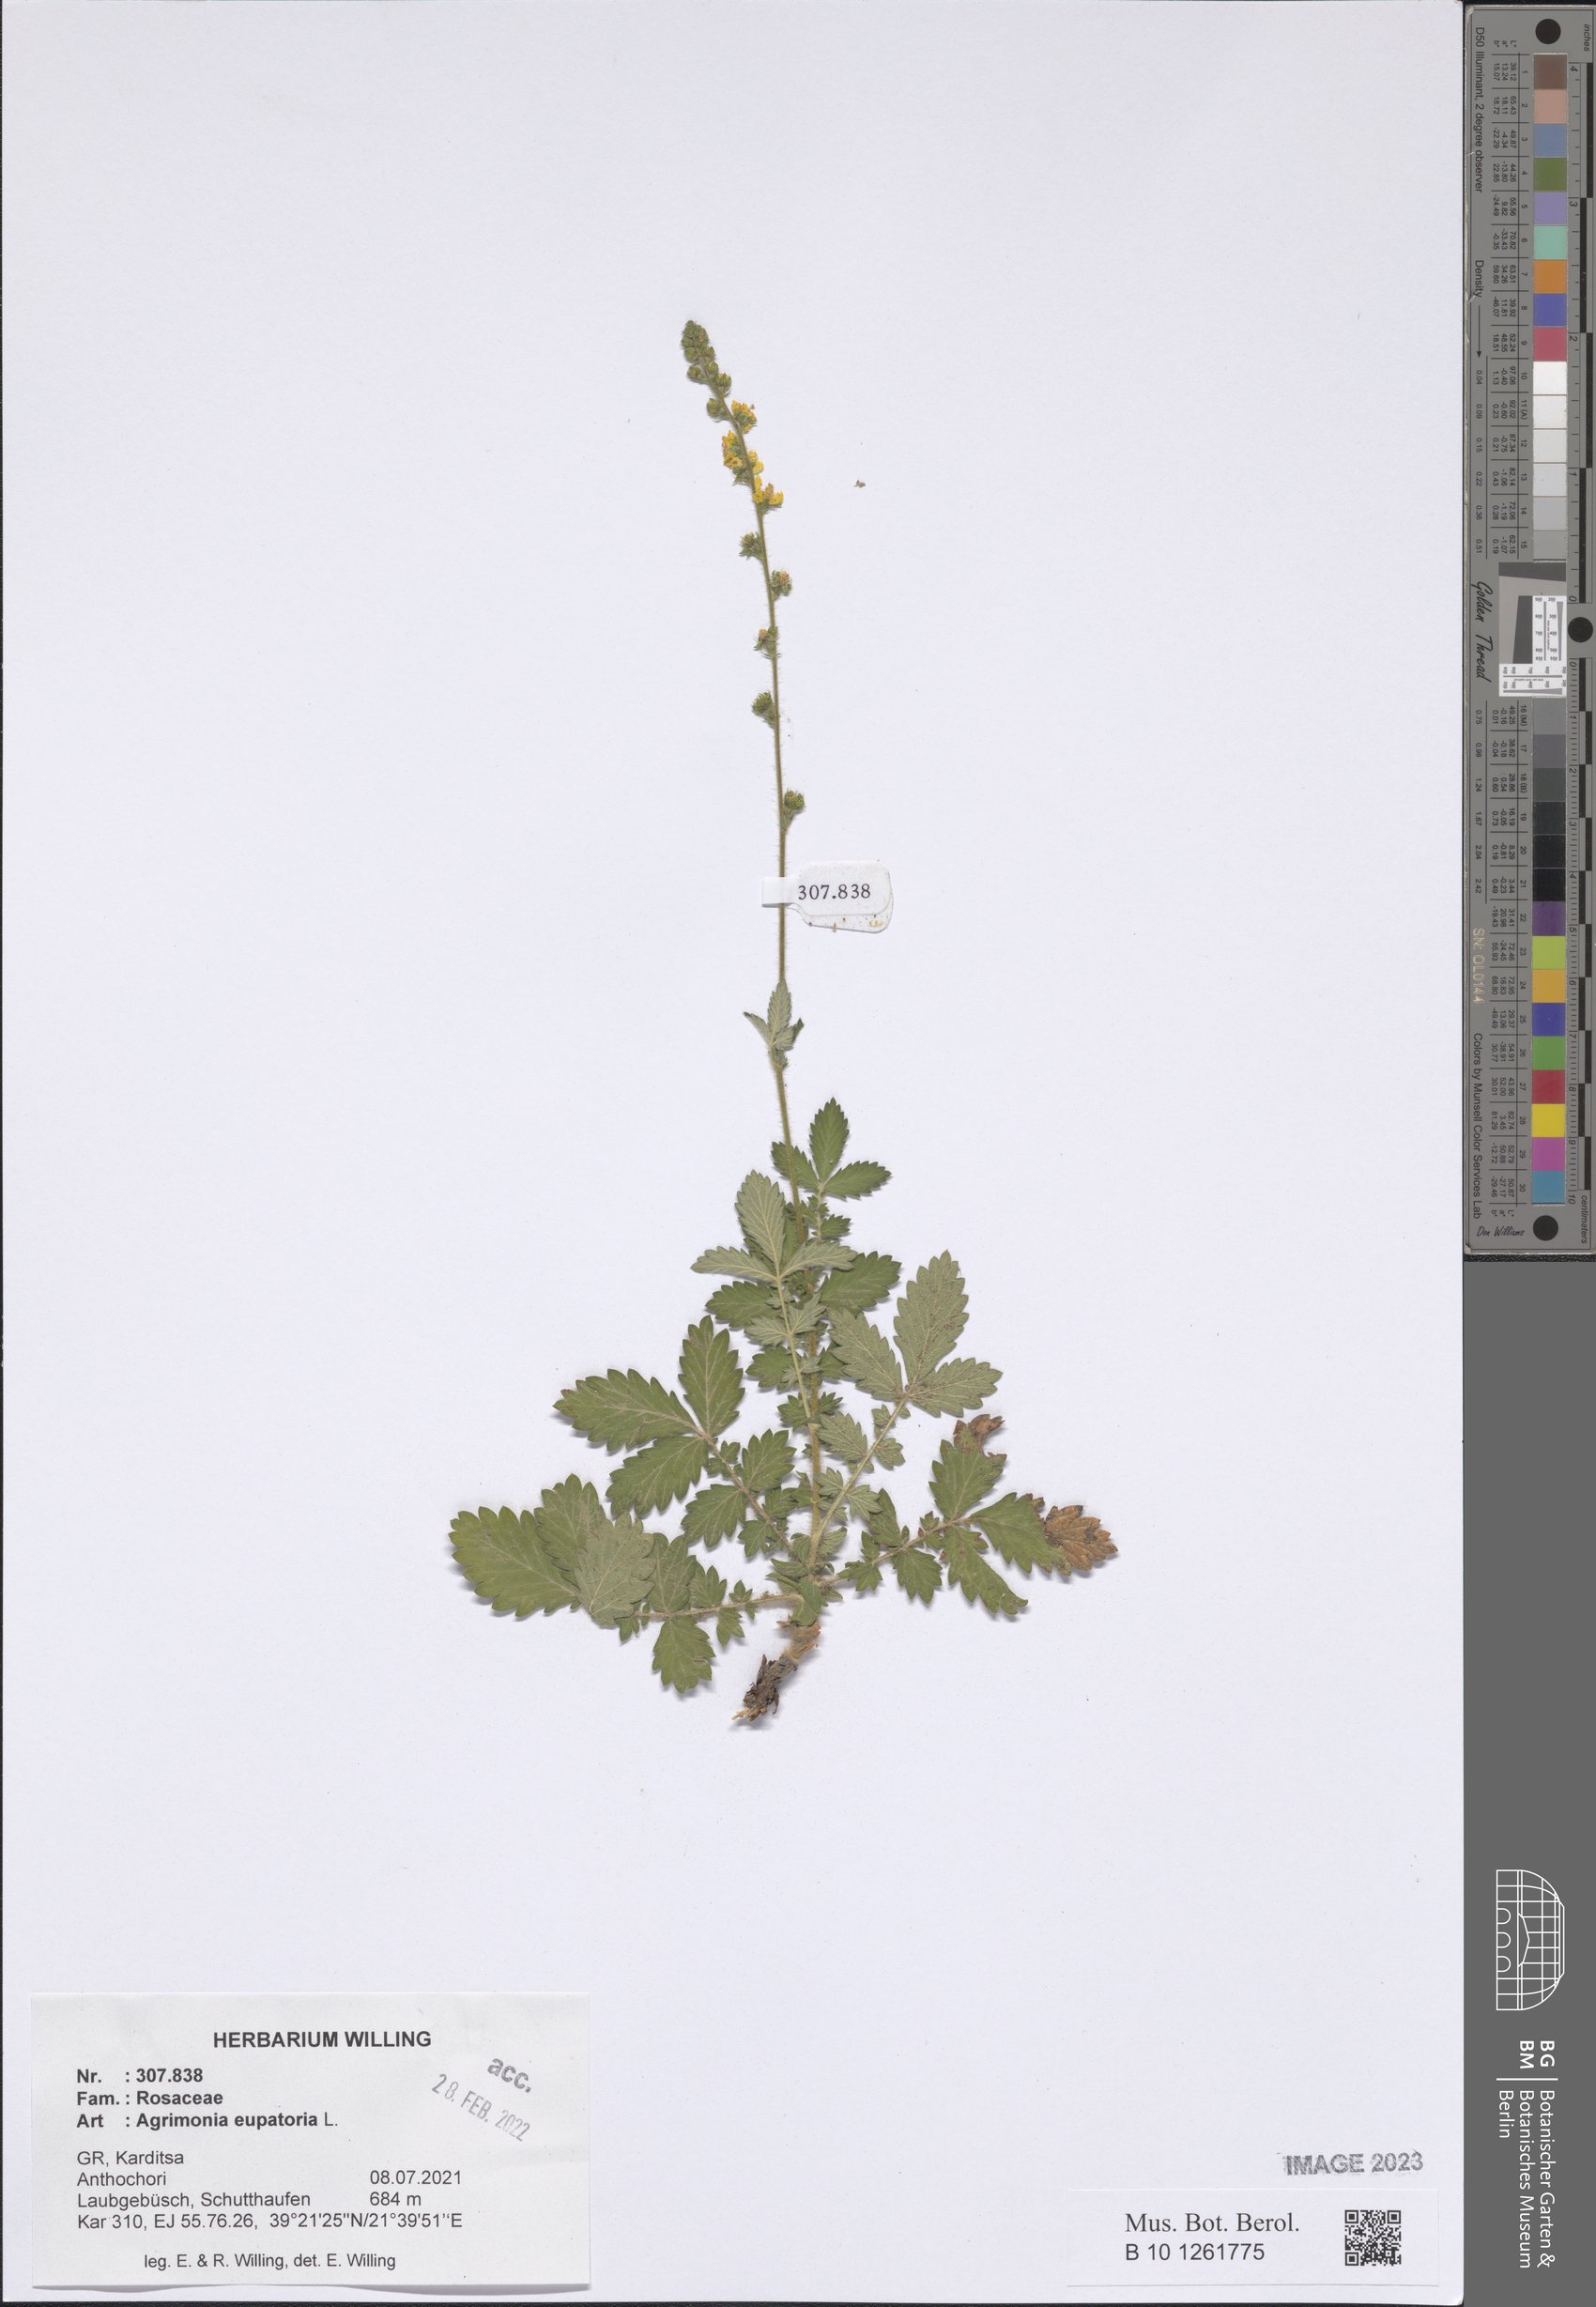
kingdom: Plantae
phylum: Tracheophyta
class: Magnoliopsida
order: Rosales
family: Rosaceae
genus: Agrimonia
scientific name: Agrimonia eupatoria
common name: Agrimony
